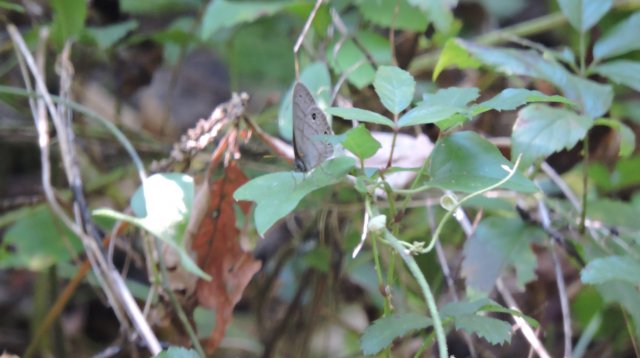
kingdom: Animalia
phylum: Arthropoda
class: Insecta
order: Lepidoptera
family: Nymphalidae
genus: Hermeuptychia
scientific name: Hermeuptychia hermes
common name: Carolina Satyr
